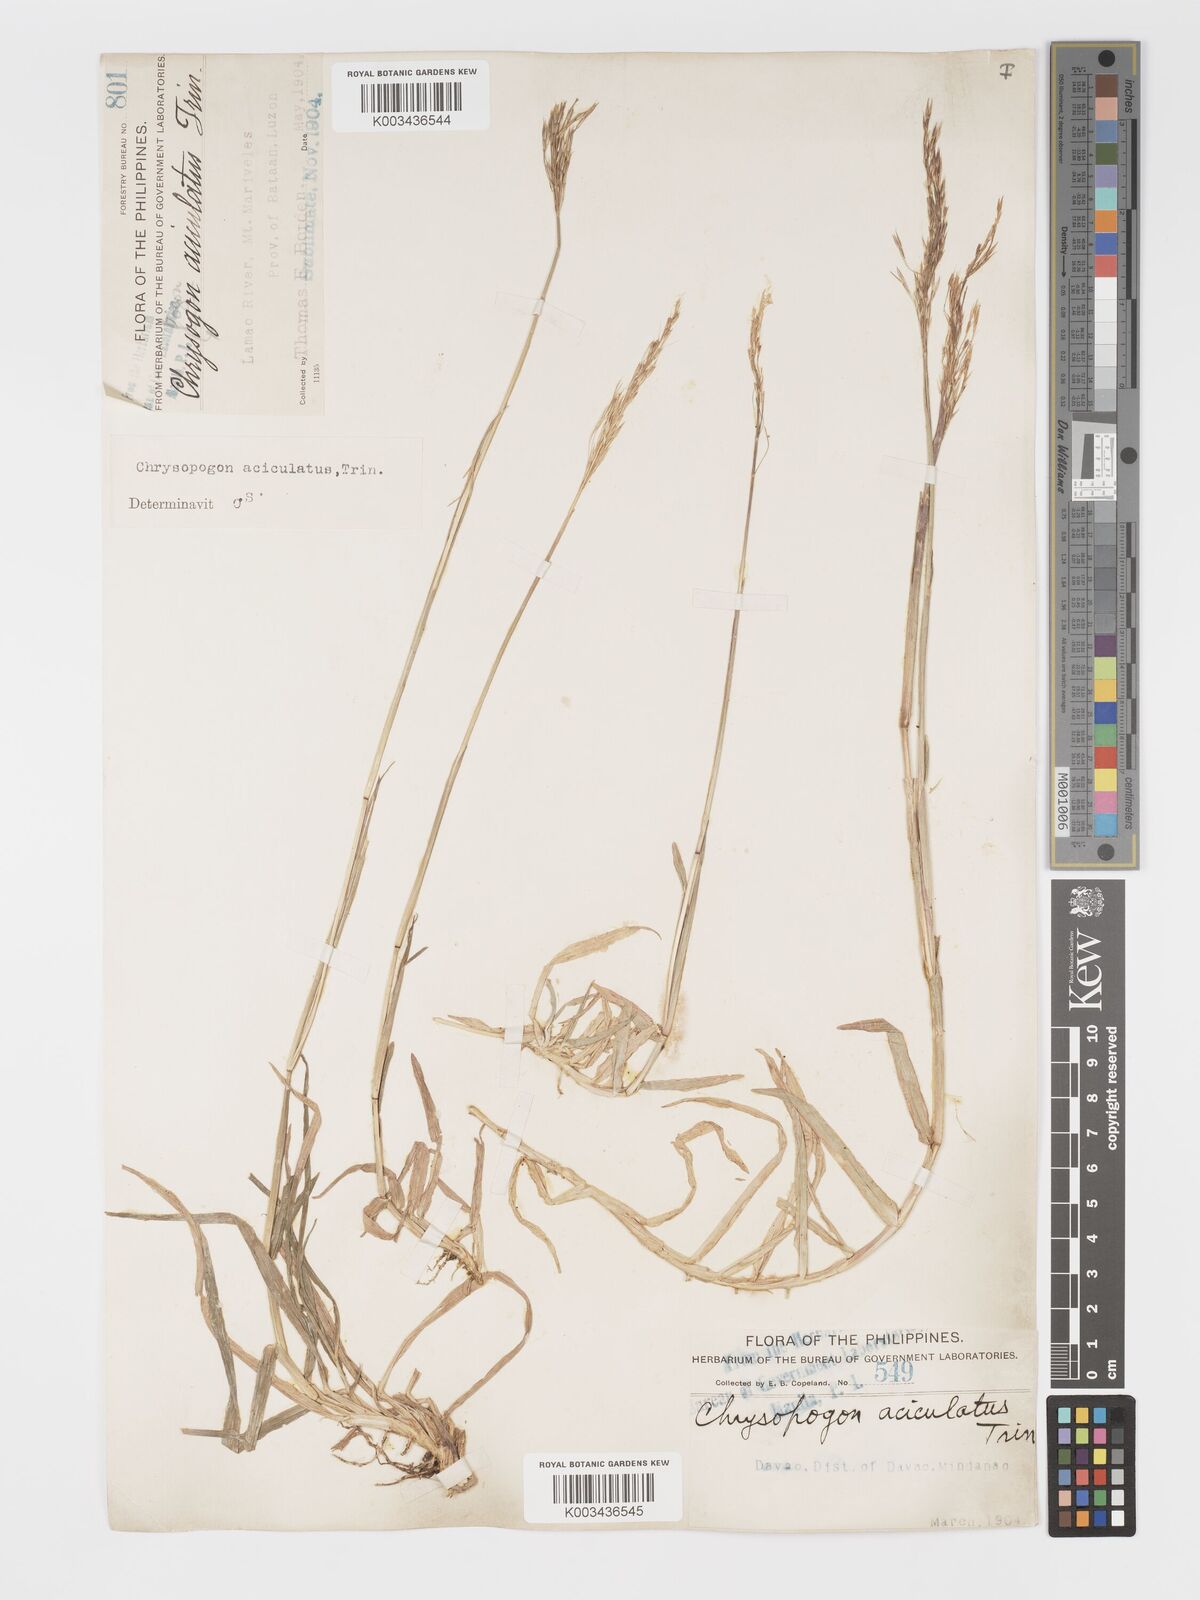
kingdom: Plantae
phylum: Tracheophyta
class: Liliopsida
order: Poales
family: Poaceae
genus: Chrysopogon
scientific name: Chrysopogon aciculatus
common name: Pilipiliula
